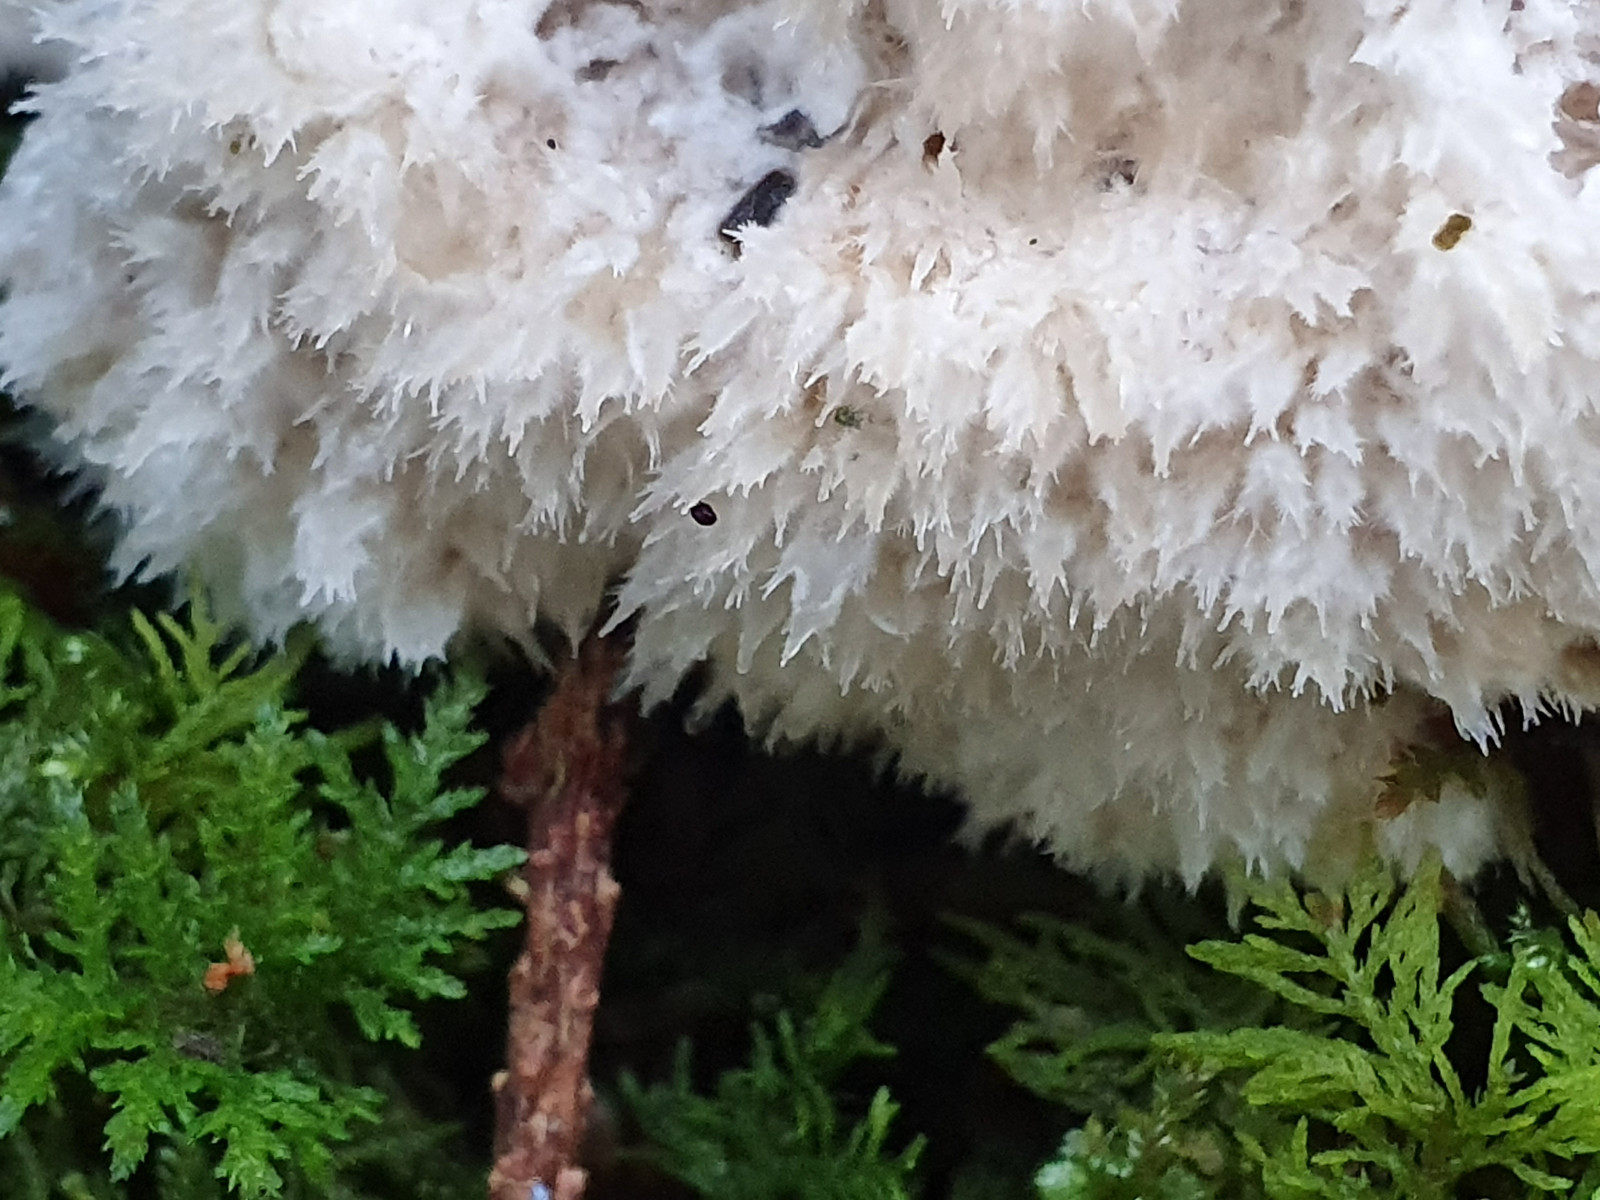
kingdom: Fungi
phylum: Basidiomycota
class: Agaricomycetes
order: Polyporales
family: Dacryobolaceae
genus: Postia
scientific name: Postia ptychogaster
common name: støvende kødporesvamp
